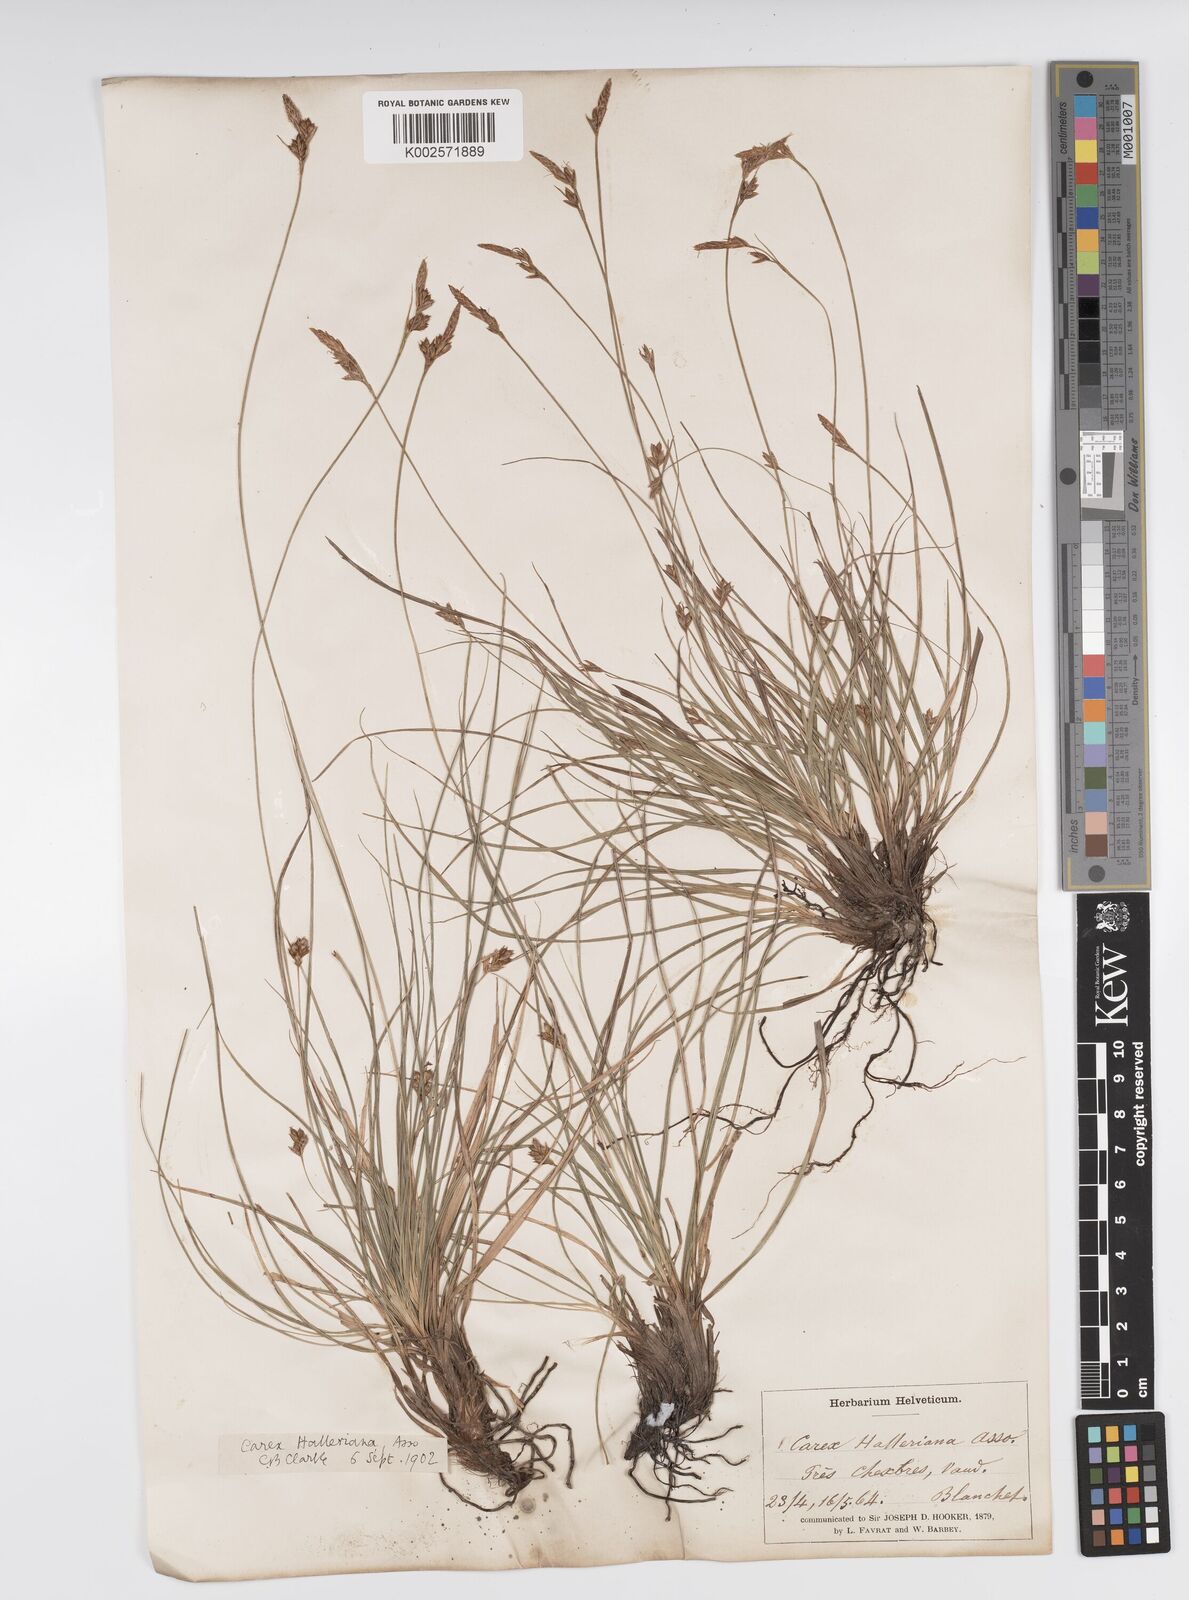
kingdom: Plantae
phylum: Tracheophyta
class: Liliopsida
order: Poales
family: Cyperaceae
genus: Carex
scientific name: Carex halleriana
